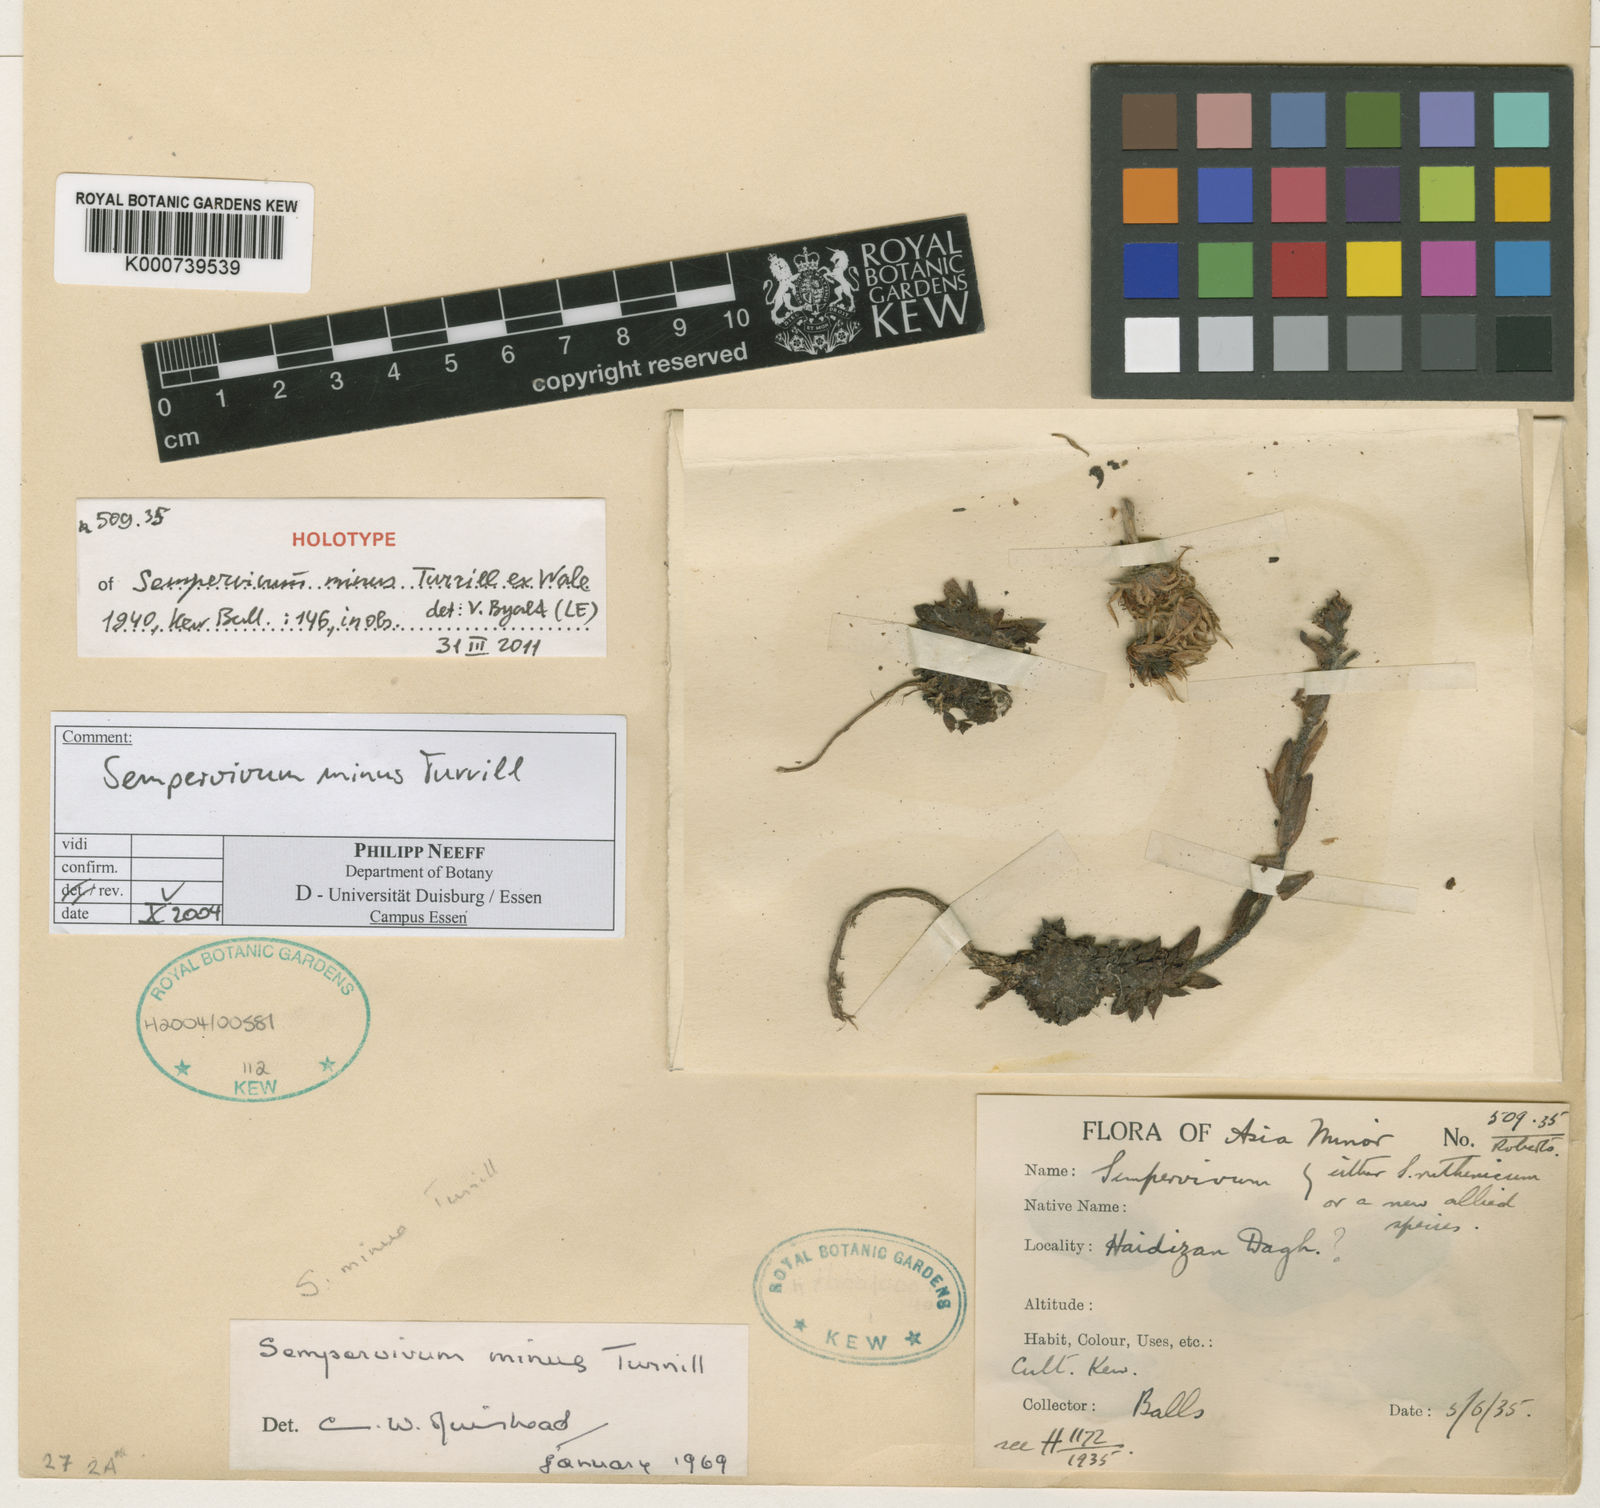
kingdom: Plantae
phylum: Tracheophyta
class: Magnoliopsida
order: Saxifragales
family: Crassulaceae
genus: Sempervivum
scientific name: Sempervivum minus
